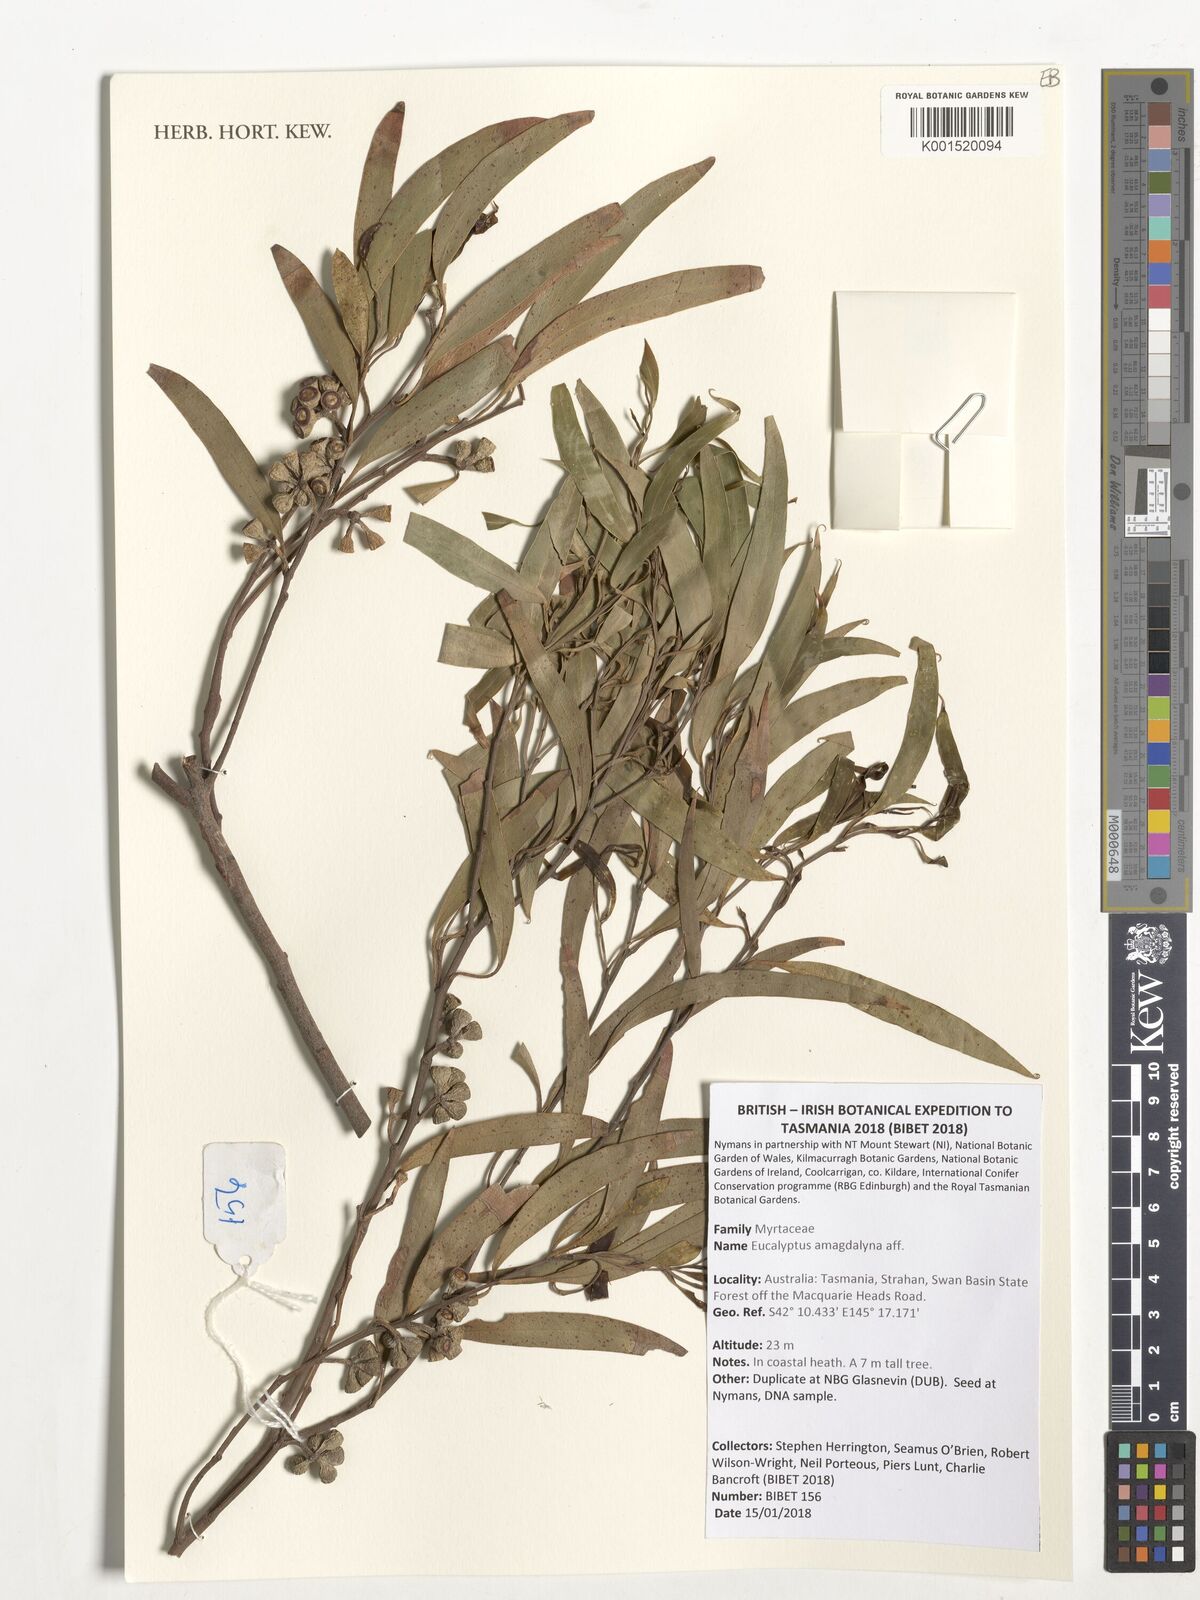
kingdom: Plantae
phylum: Tracheophyta
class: Magnoliopsida
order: Myrtales
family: Myrtaceae
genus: Eucalyptus
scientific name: Eucalyptus
